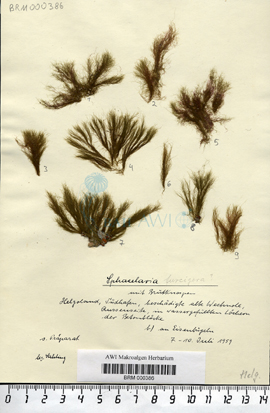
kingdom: Chromista
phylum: Ochrophyta
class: Phaeophyceae
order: Sphacelariales
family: Sphacelariaceae
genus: Sphacelaria
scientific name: Sphacelaria rigidula
